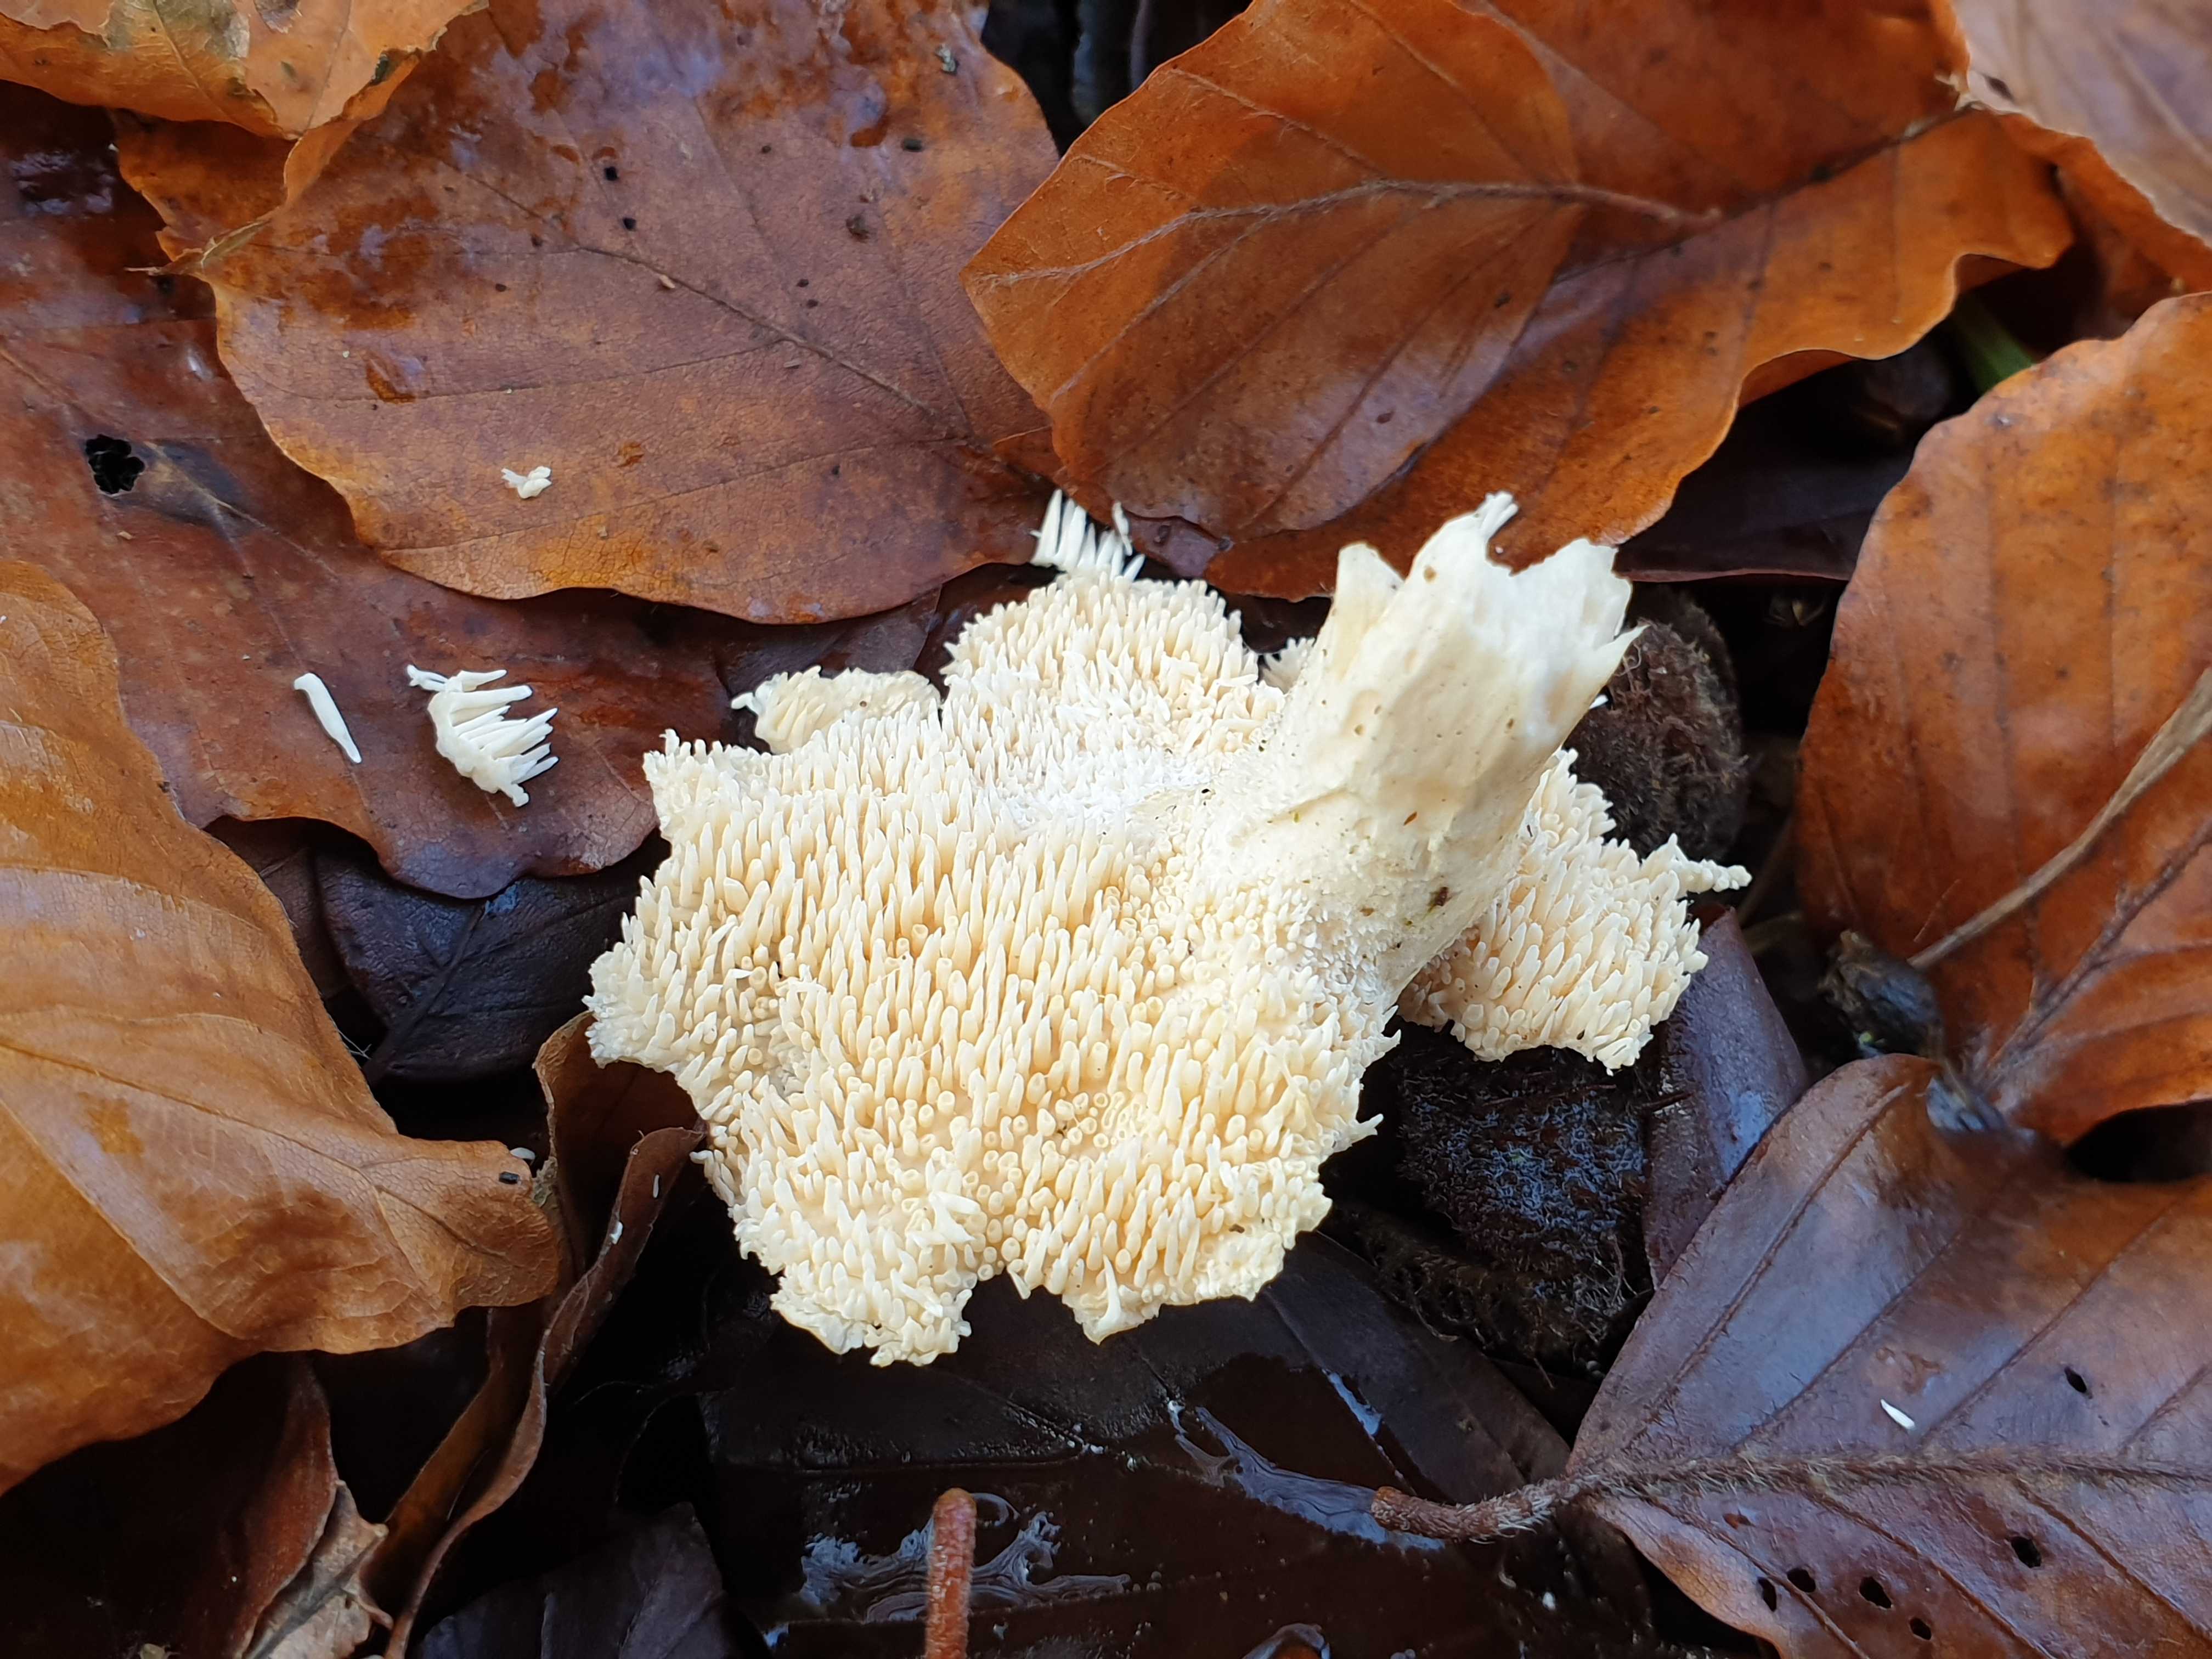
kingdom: Fungi
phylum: Basidiomycota
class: Agaricomycetes
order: Cantharellales
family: Hydnaceae
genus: Hydnum
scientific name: Hydnum
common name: pigsvamp
